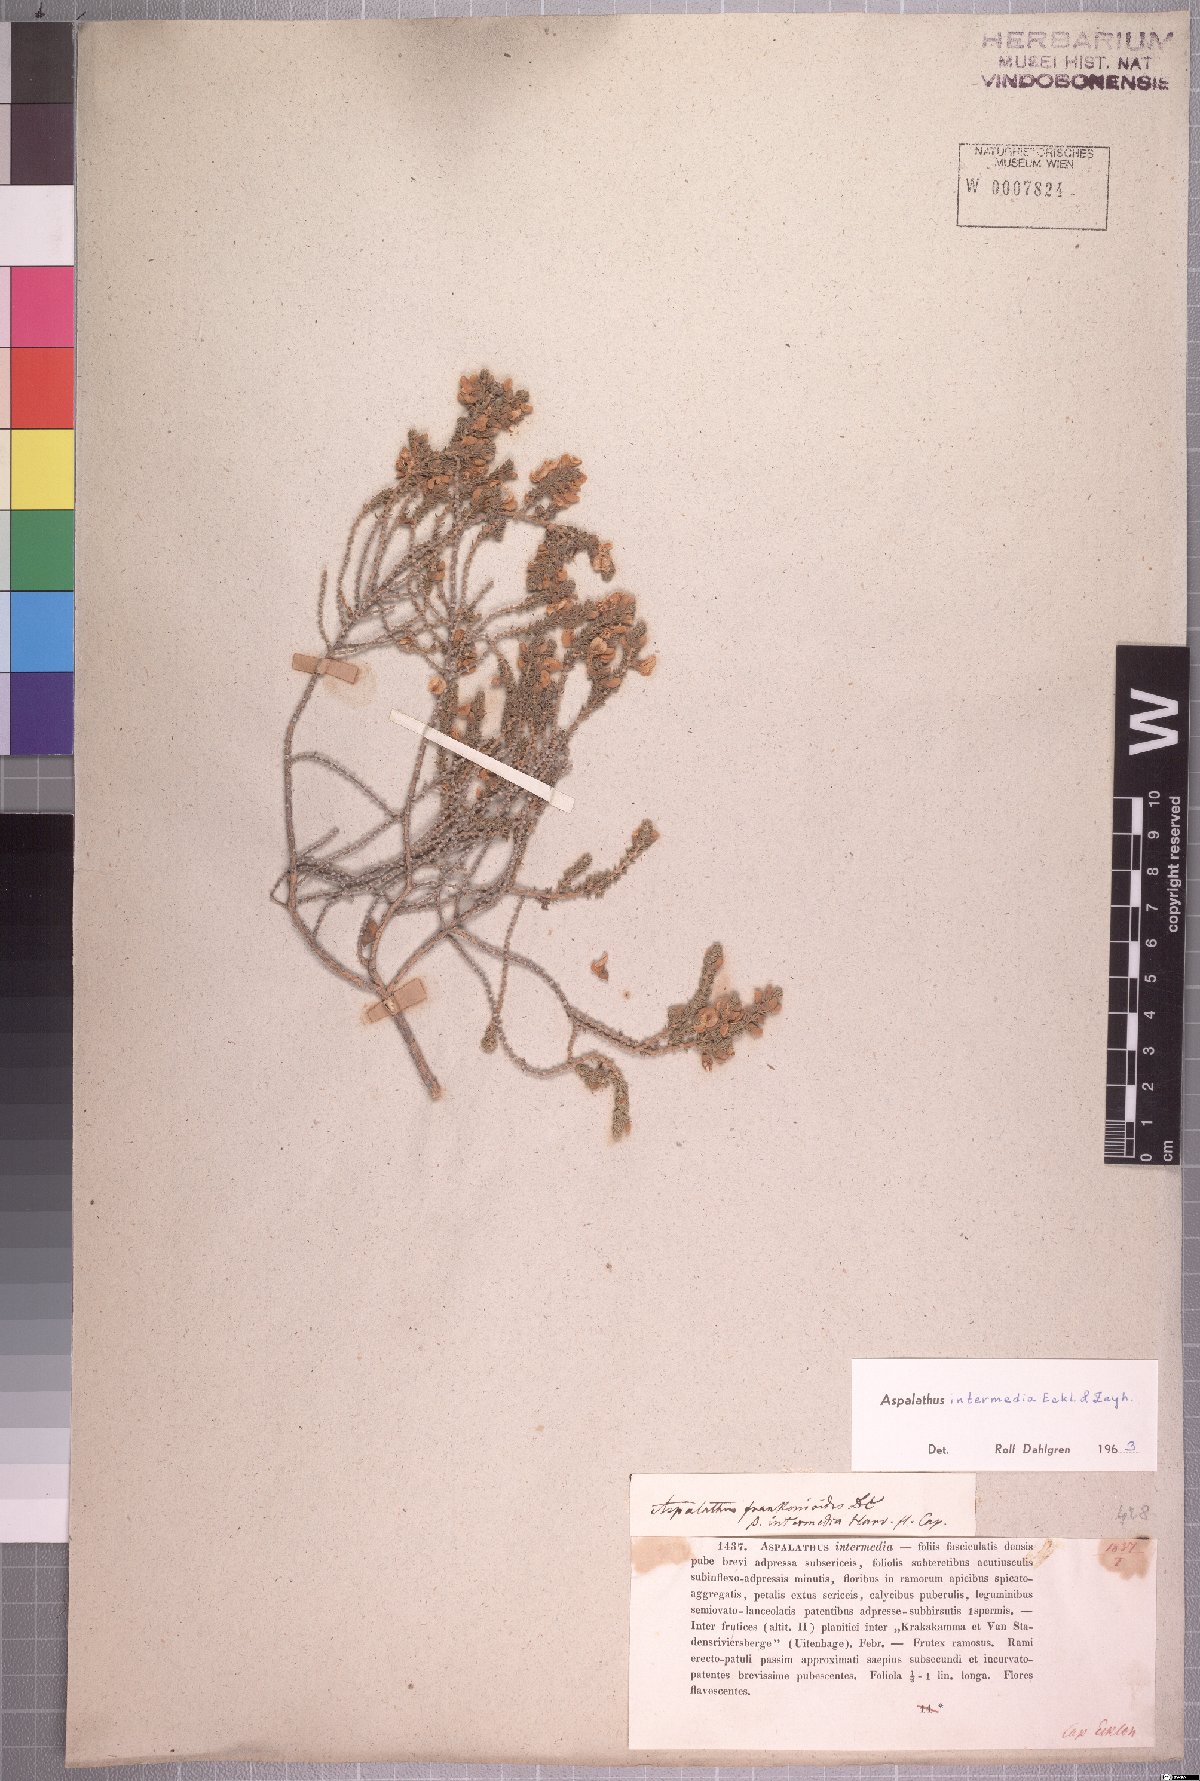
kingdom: Plantae
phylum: Tracheophyta
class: Magnoliopsida
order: Fabales
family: Fabaceae
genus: Aspalathus
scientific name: Aspalathus intermedia
